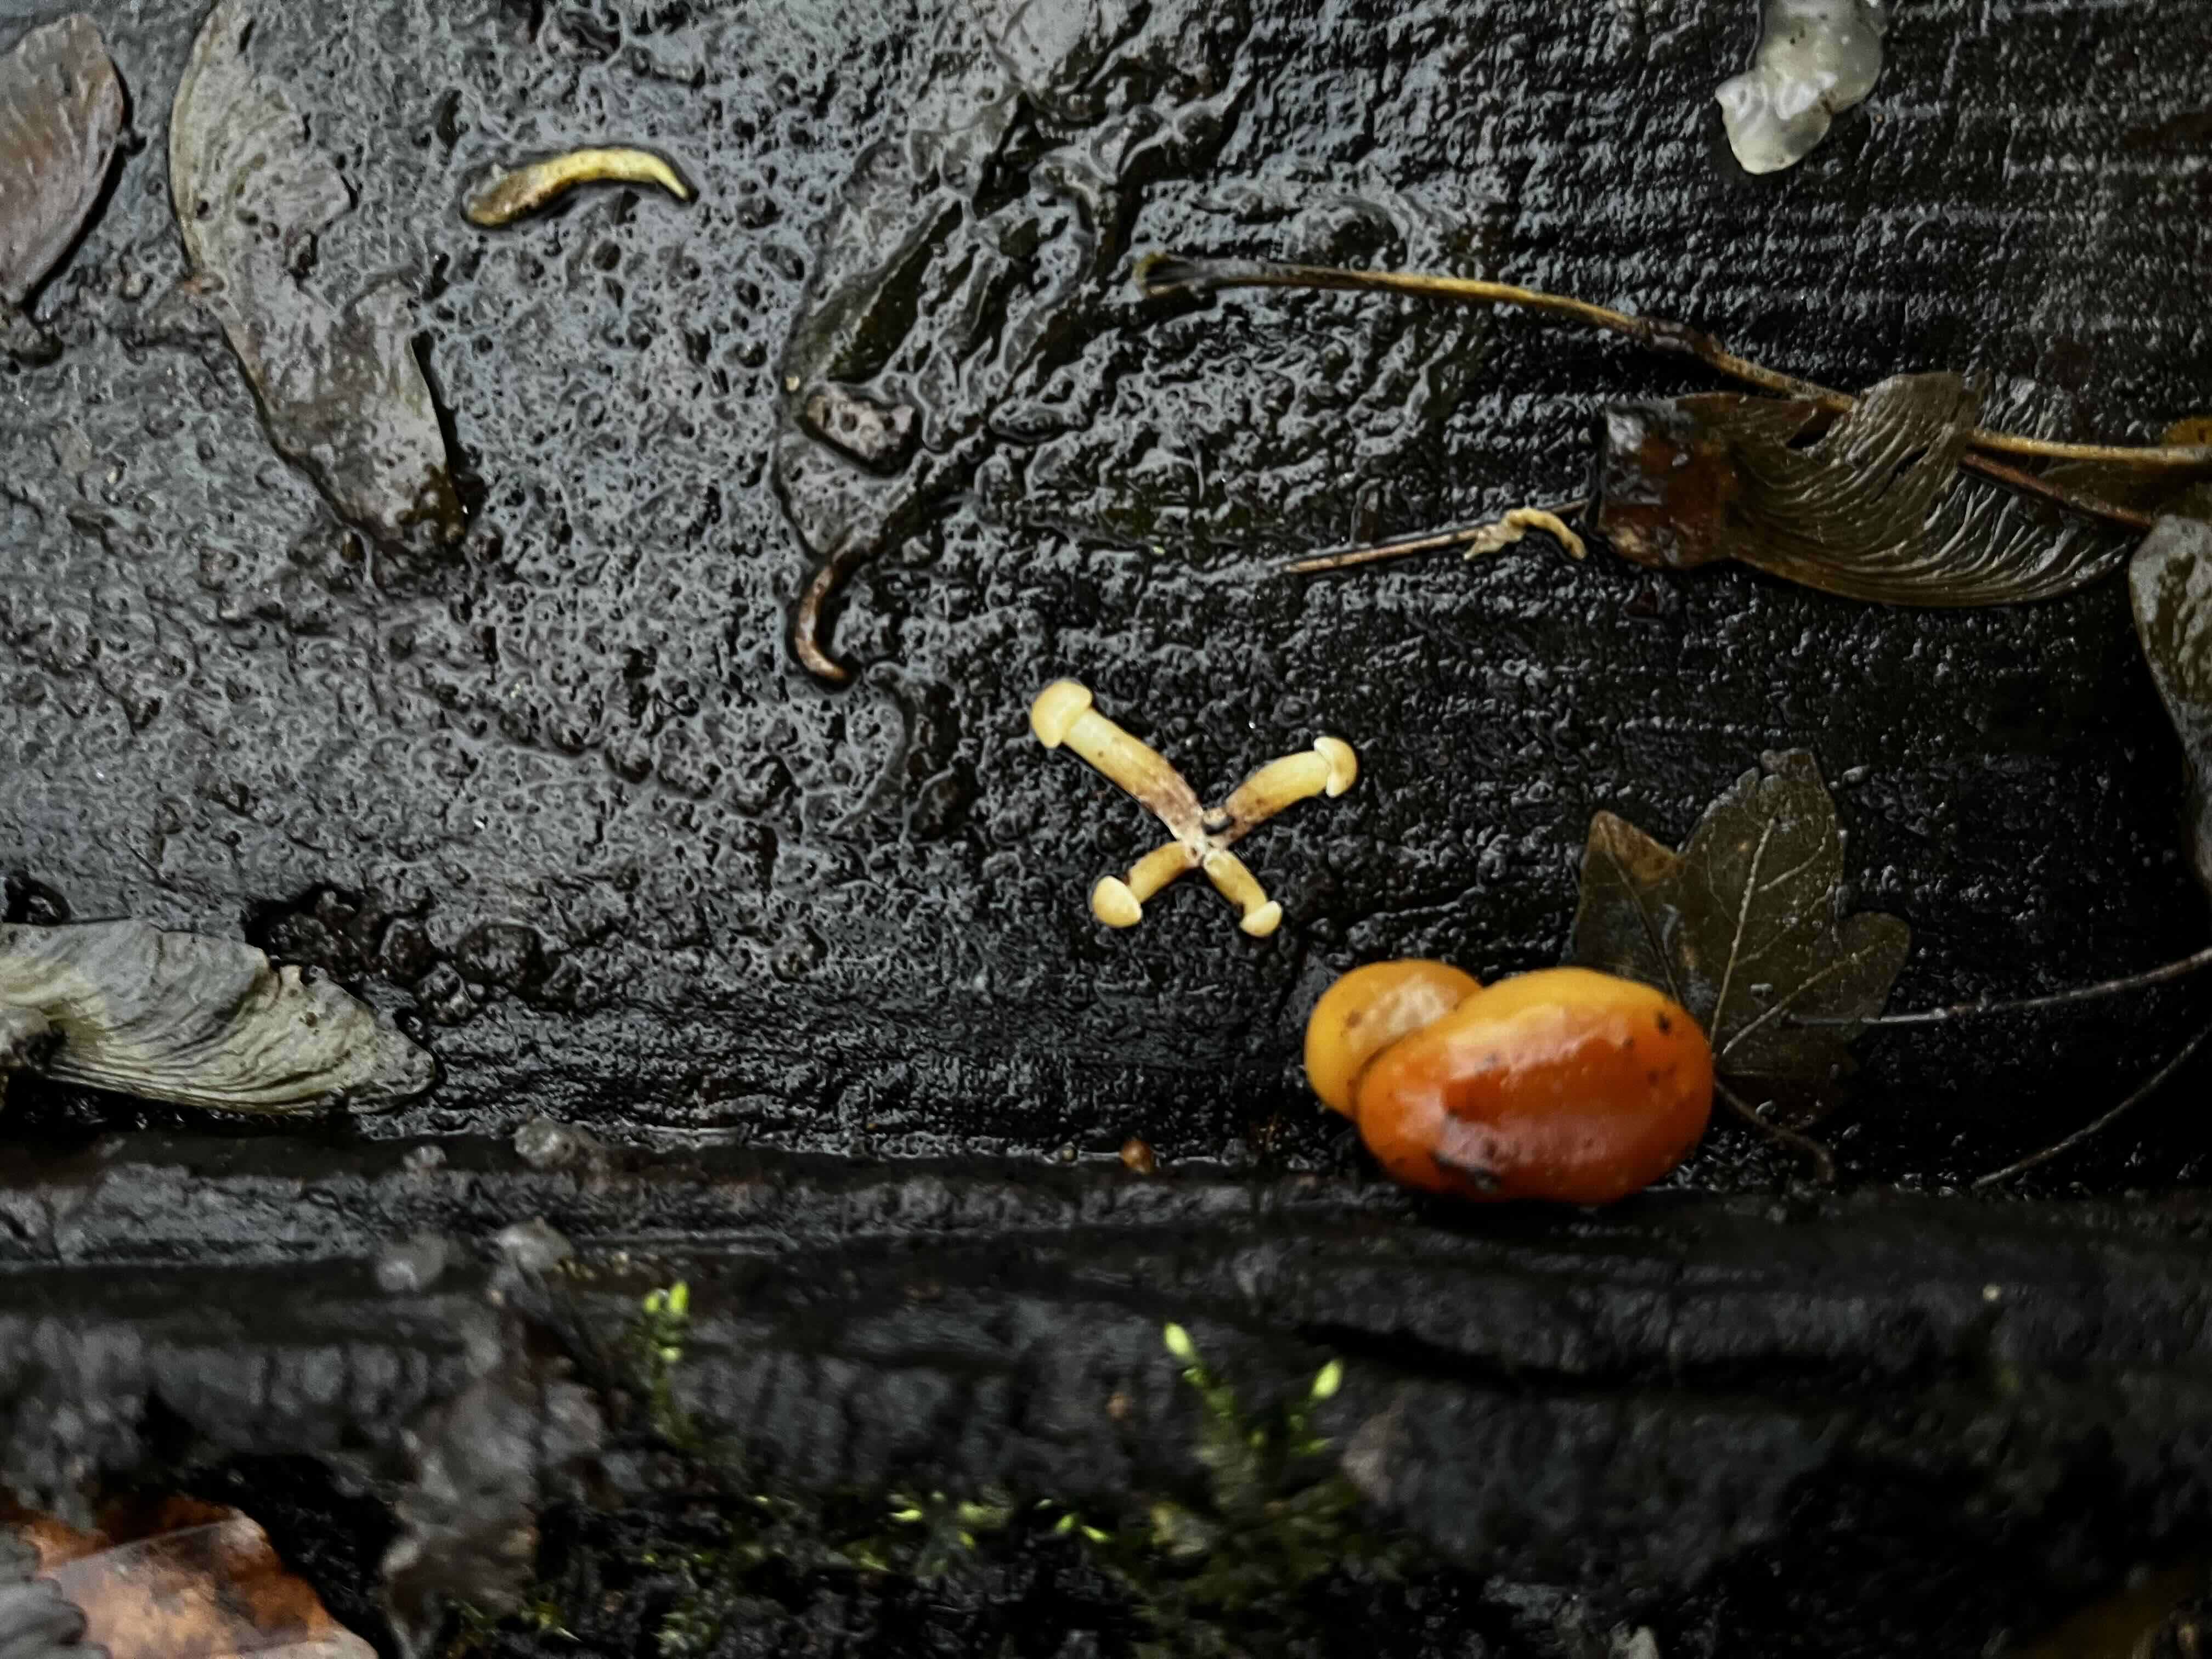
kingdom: Fungi
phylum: Basidiomycota
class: Agaricomycetes
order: Agaricales
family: Physalacriaceae
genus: Flammulina
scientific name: Flammulina
